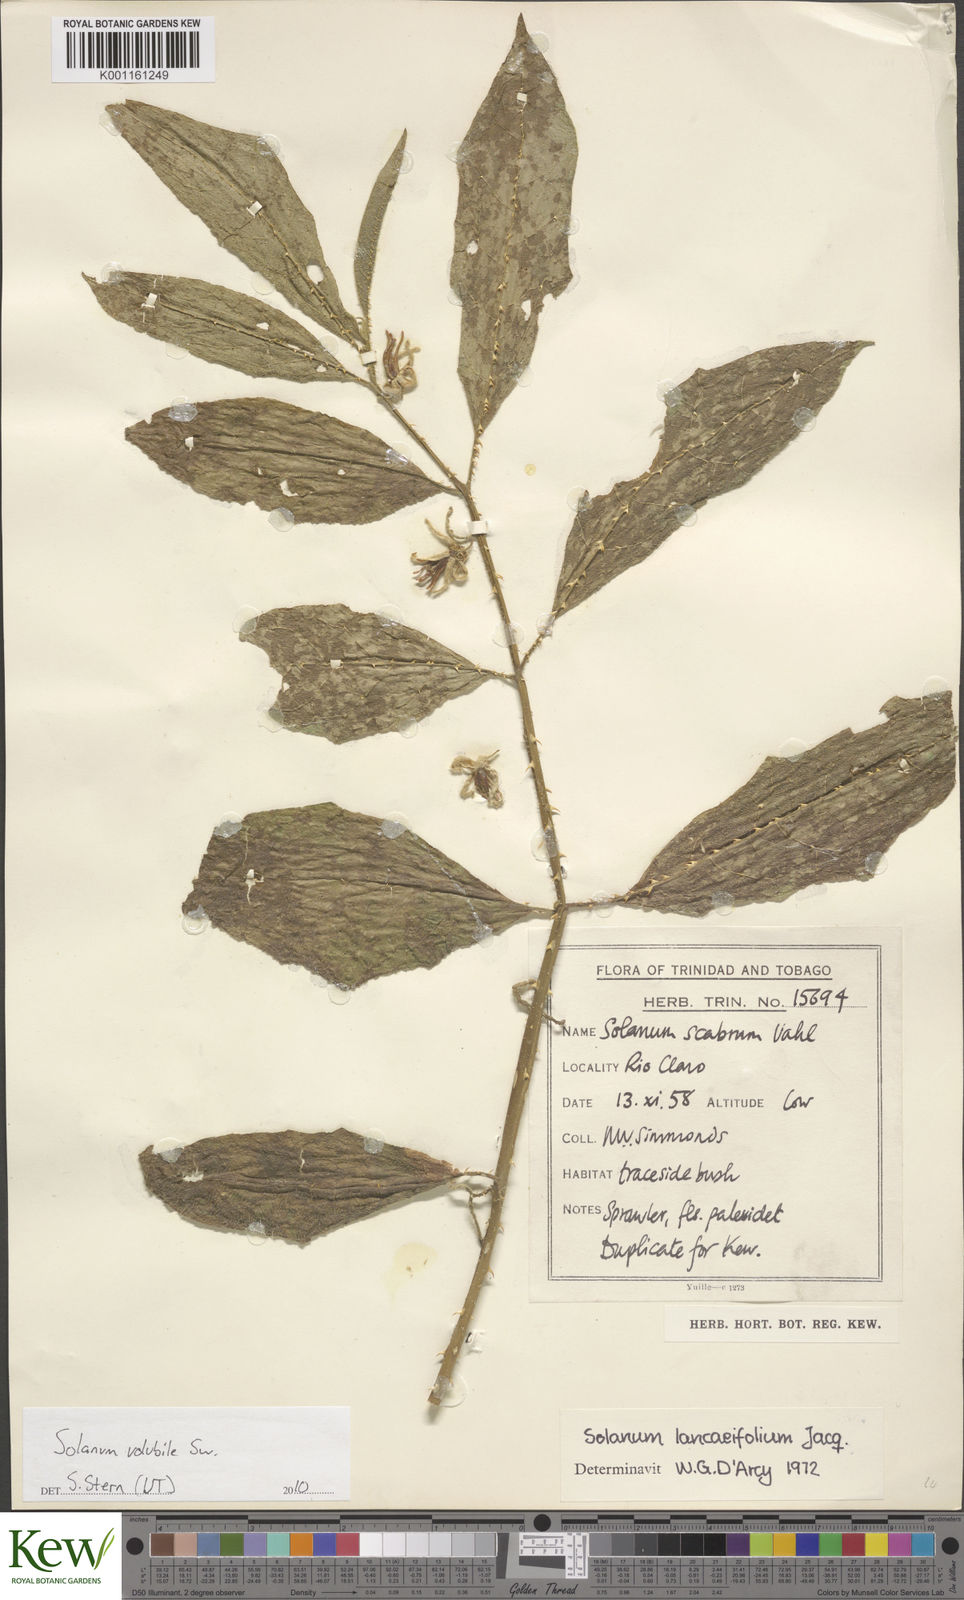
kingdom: Plantae
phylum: Tracheophyta
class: Magnoliopsida
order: Solanales
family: Solanaceae
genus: Solanum
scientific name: Solanum volubile
